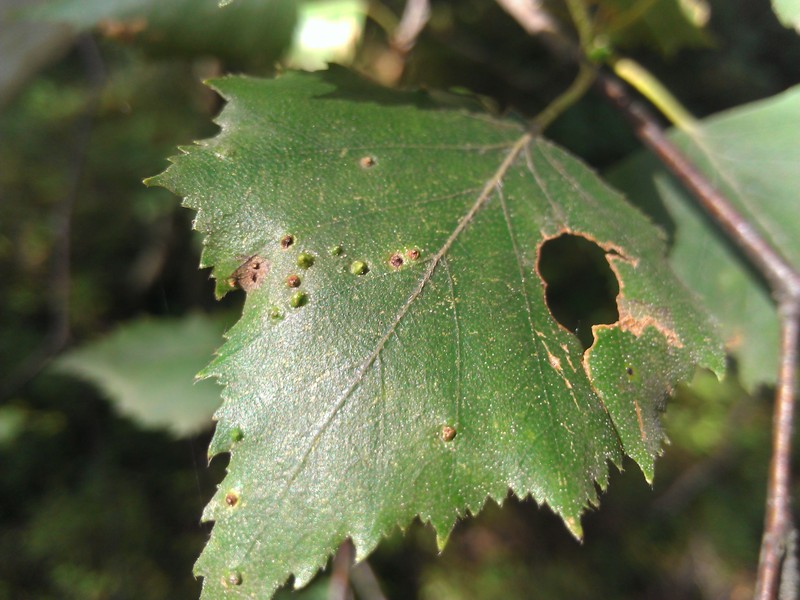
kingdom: Animalia
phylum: Arthropoda
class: Arachnida
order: Trombidiformes
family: Eriophyidae
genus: Aculus
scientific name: Aculus leionotus
